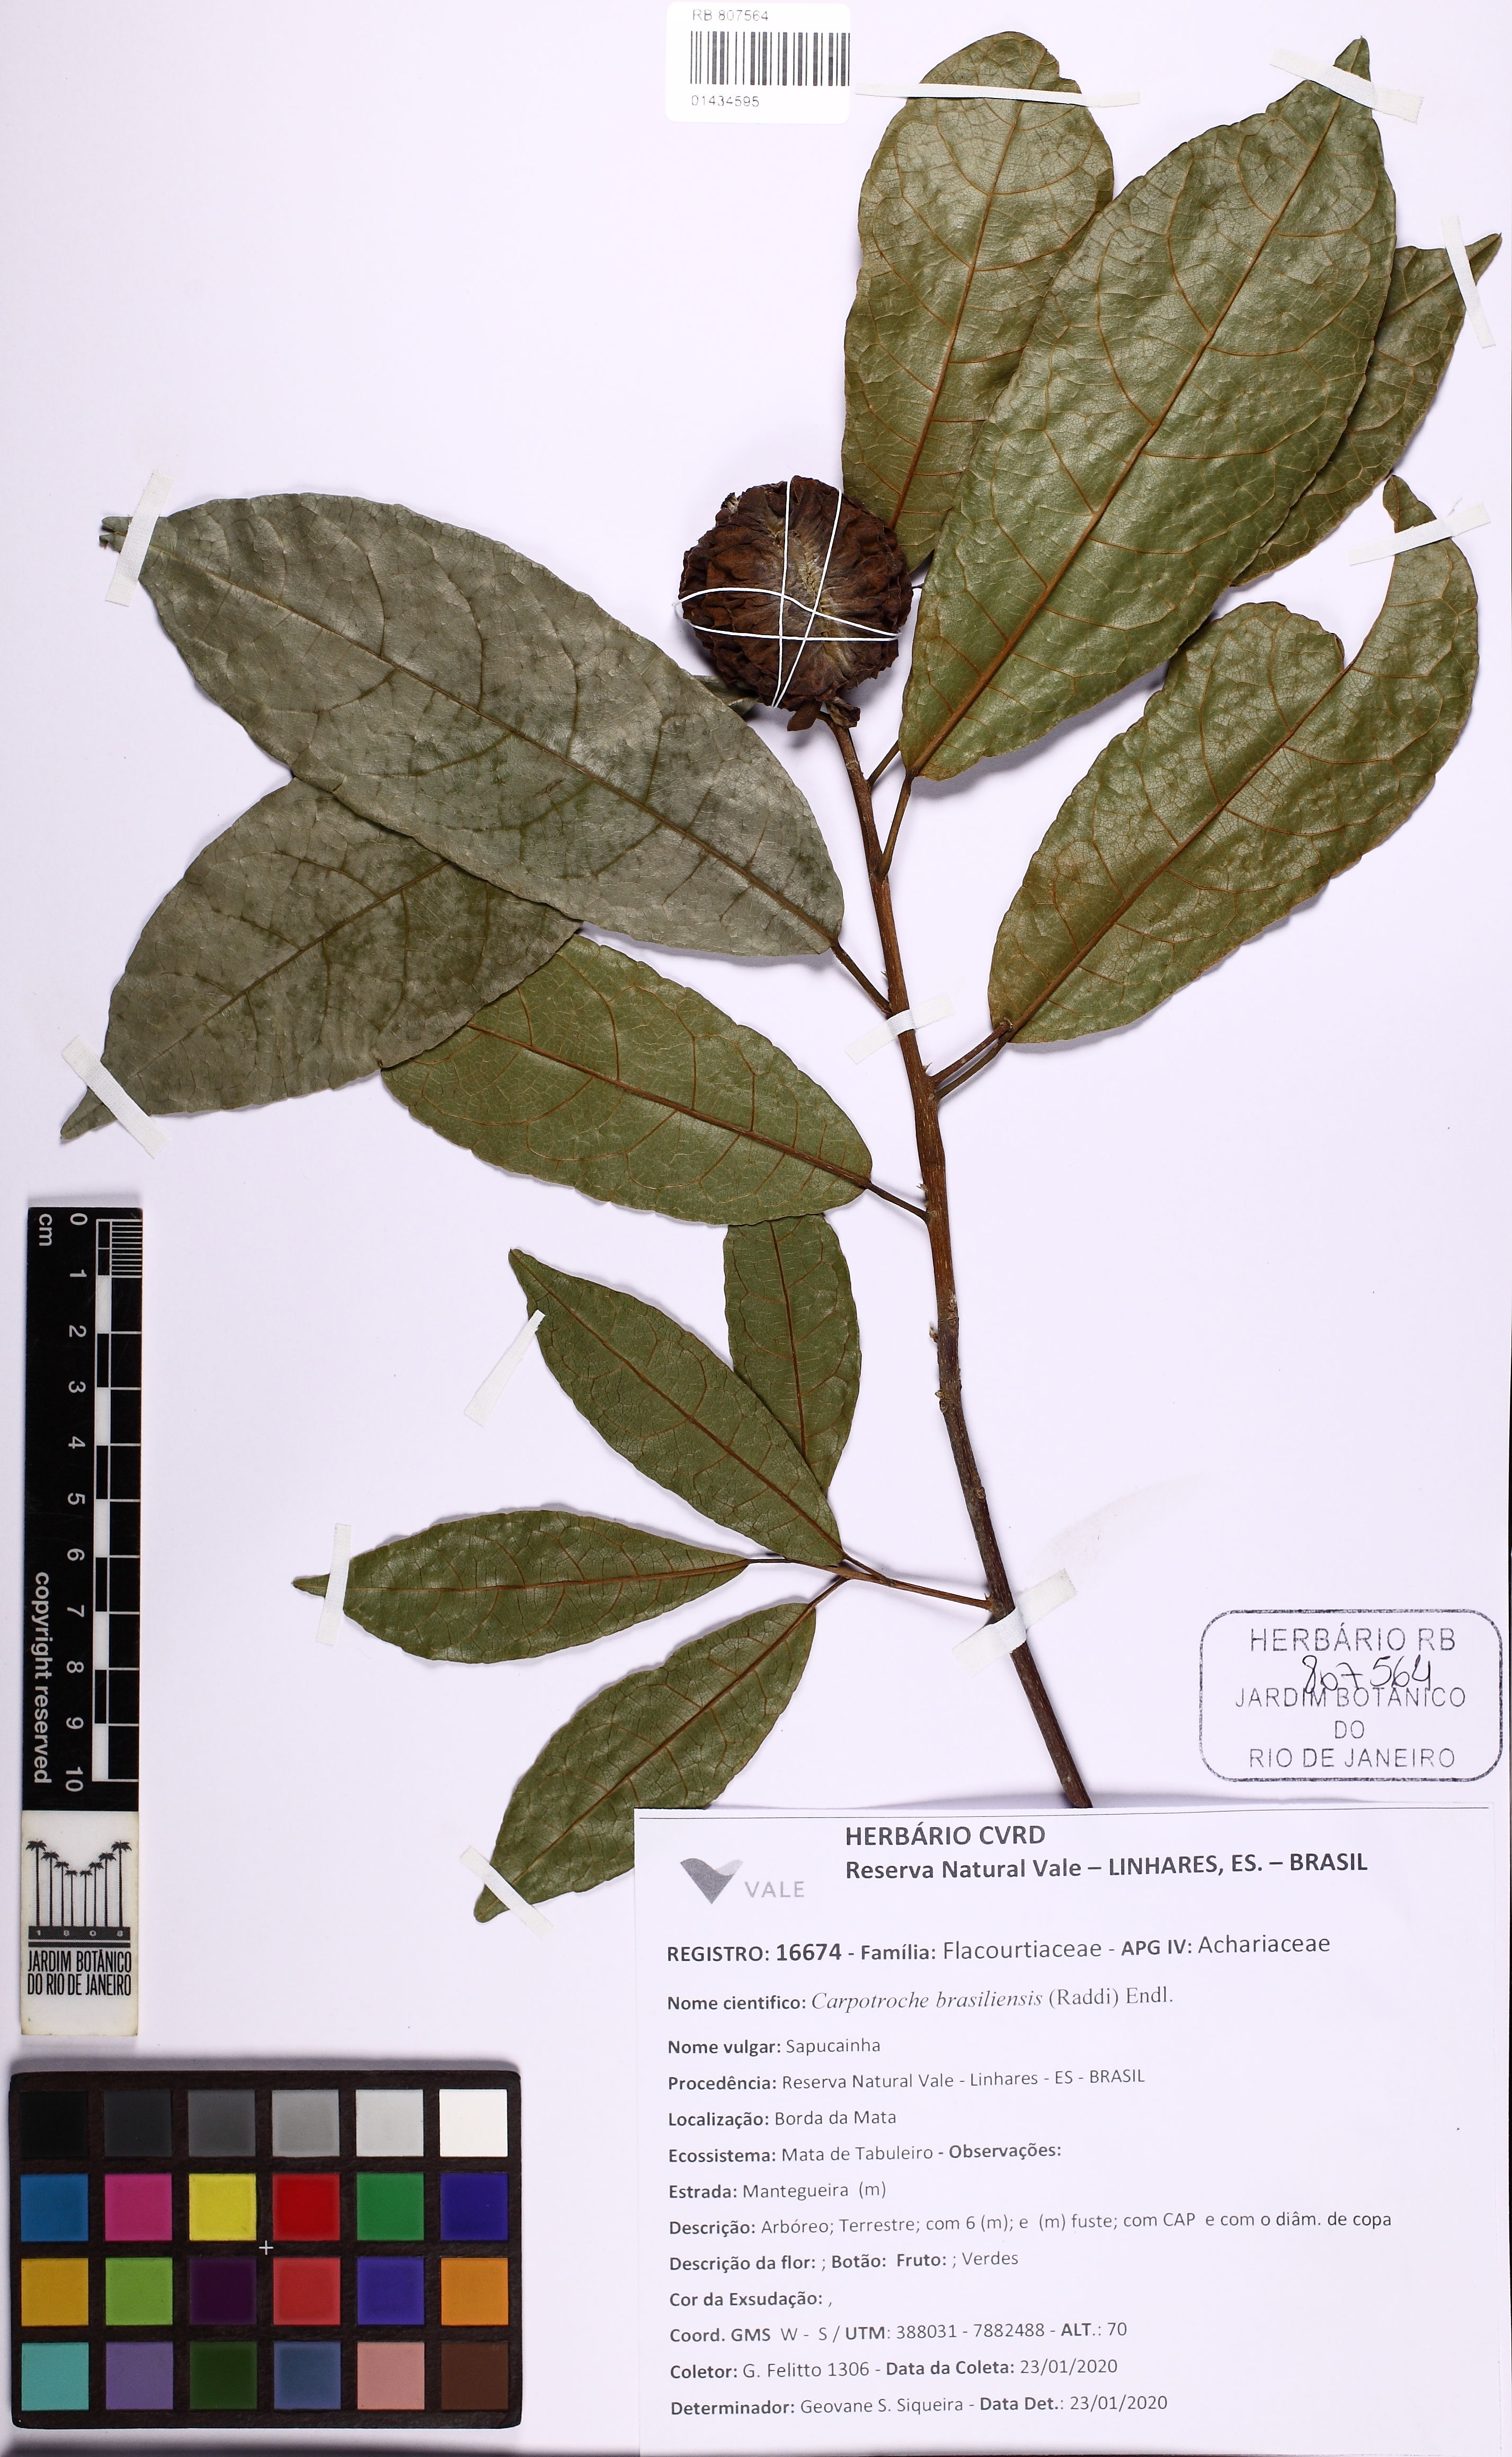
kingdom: Plantae
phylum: Tracheophyta
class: Magnoliopsida
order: Malpighiales
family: Achariaceae
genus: Carpotroche
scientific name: Carpotroche brasiliensis
